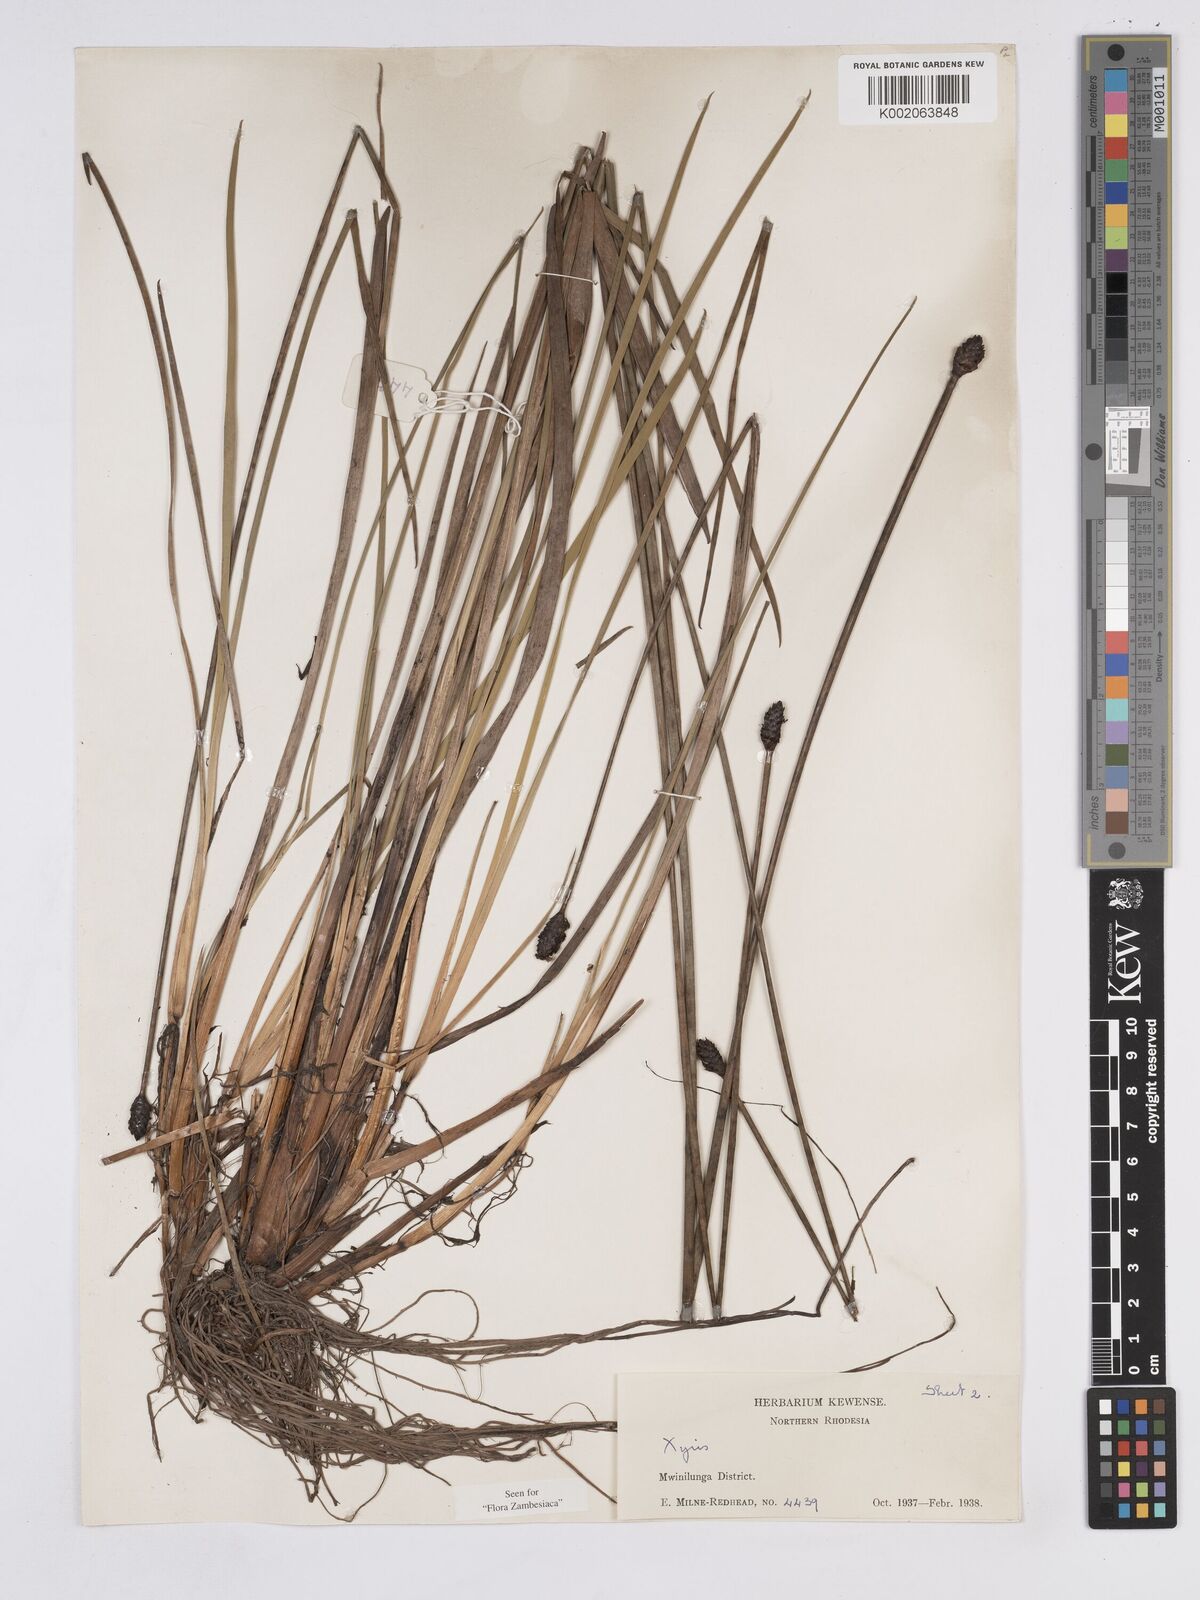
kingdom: Plantae
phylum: Tracheophyta
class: Liliopsida
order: Poales
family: Xyridaceae
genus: Xyris
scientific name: Xyris congensis
